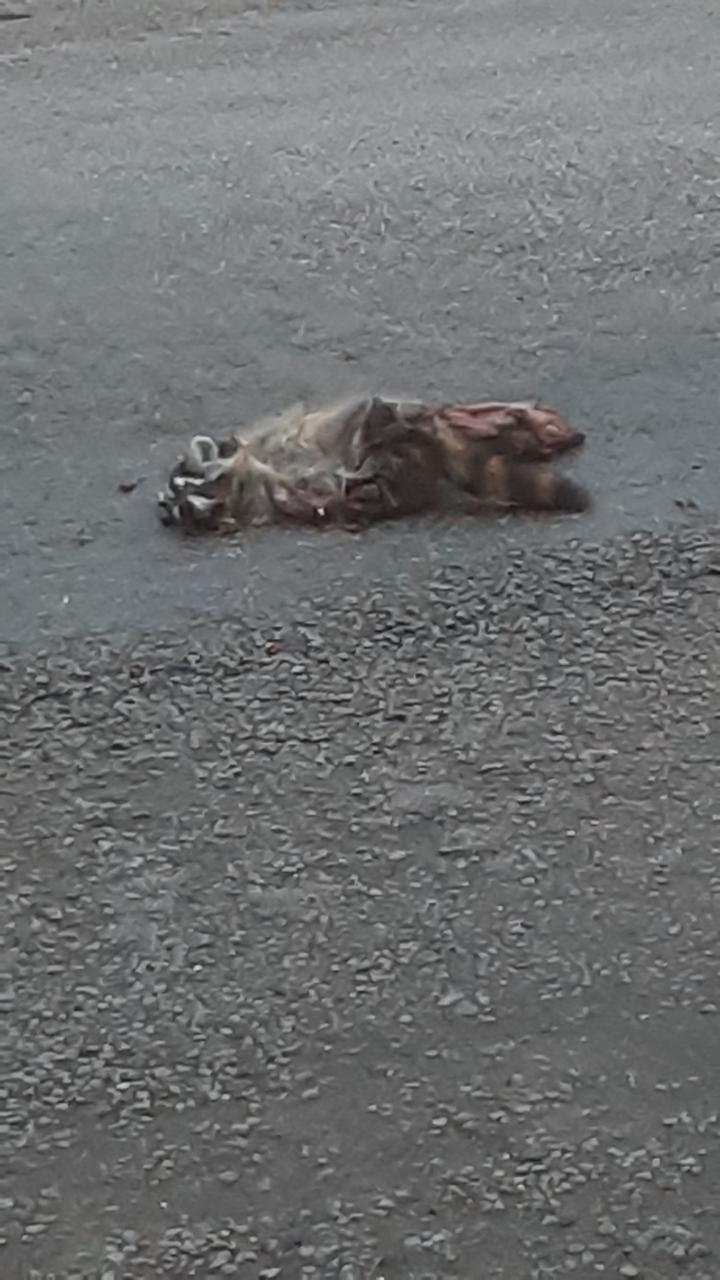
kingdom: Animalia
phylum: Chordata
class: Mammalia
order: Carnivora
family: Procyonidae
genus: Procyon
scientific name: Procyon lotor
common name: Raccoon
